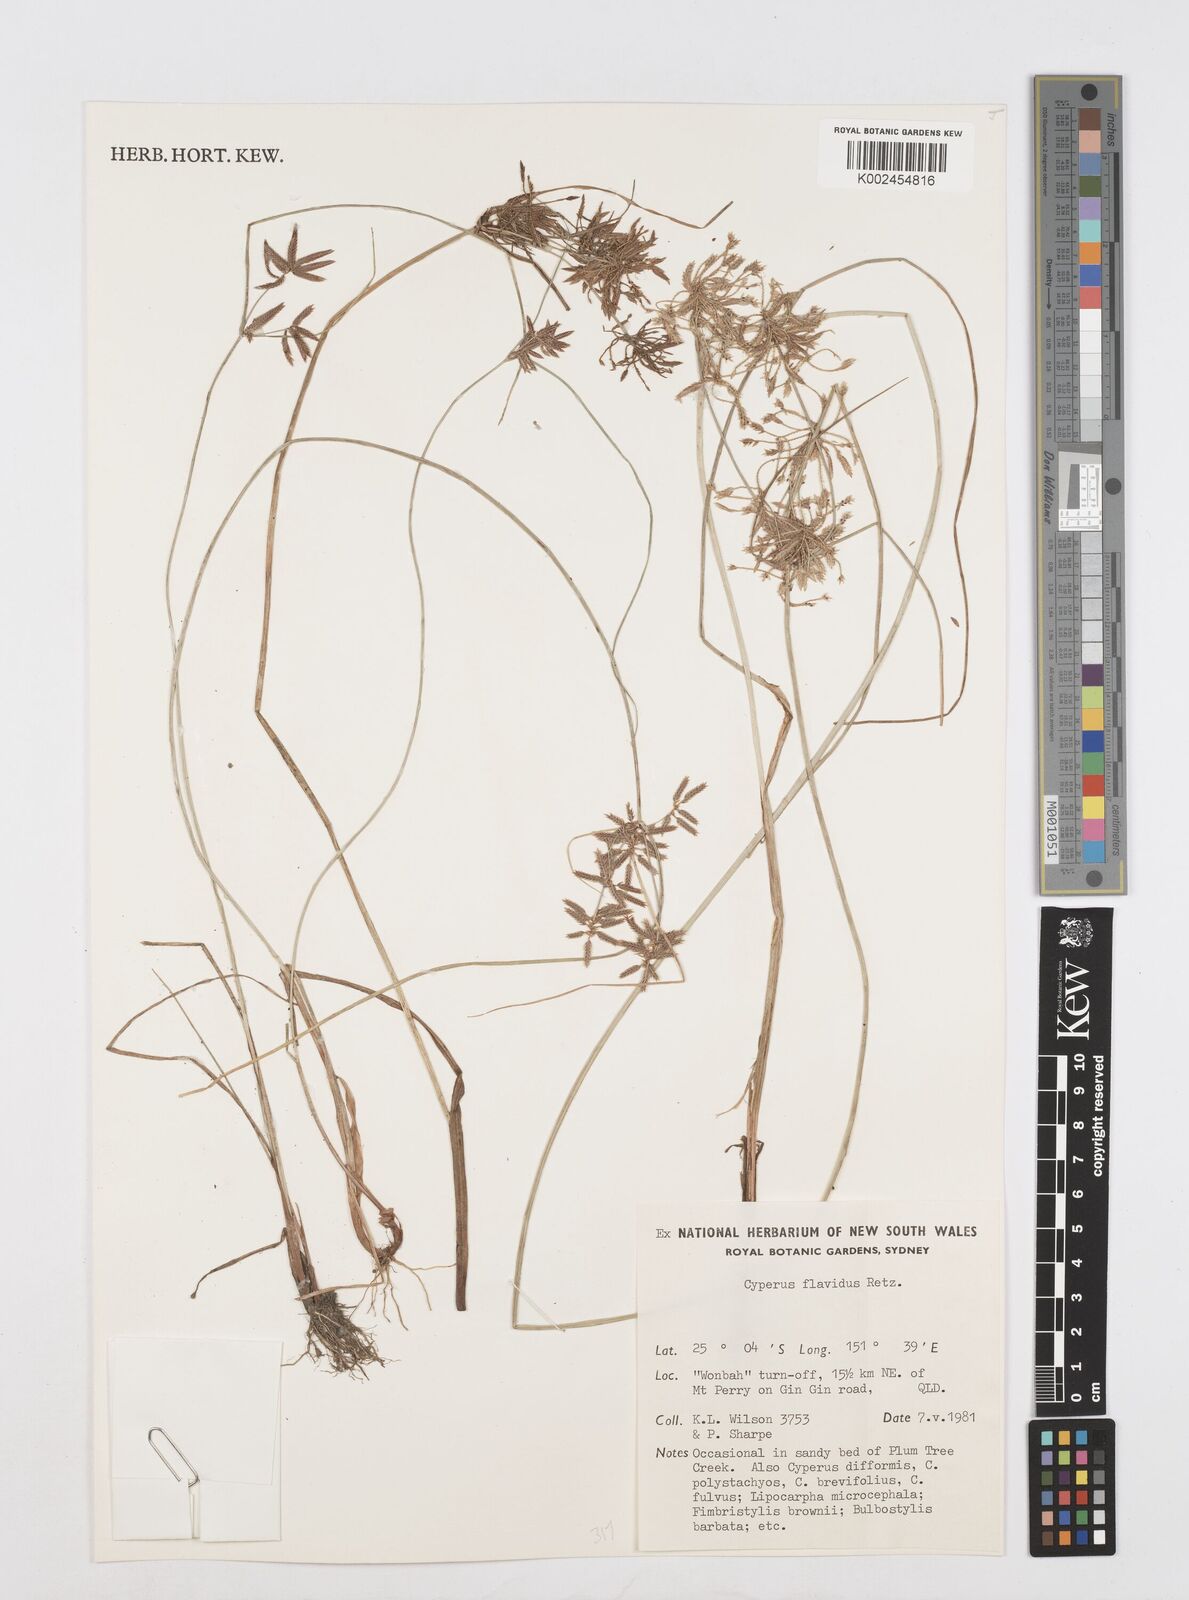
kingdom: Plantae
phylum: Tracheophyta
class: Liliopsida
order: Poales
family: Cyperaceae
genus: Cyperus
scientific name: Cyperus flavidus
